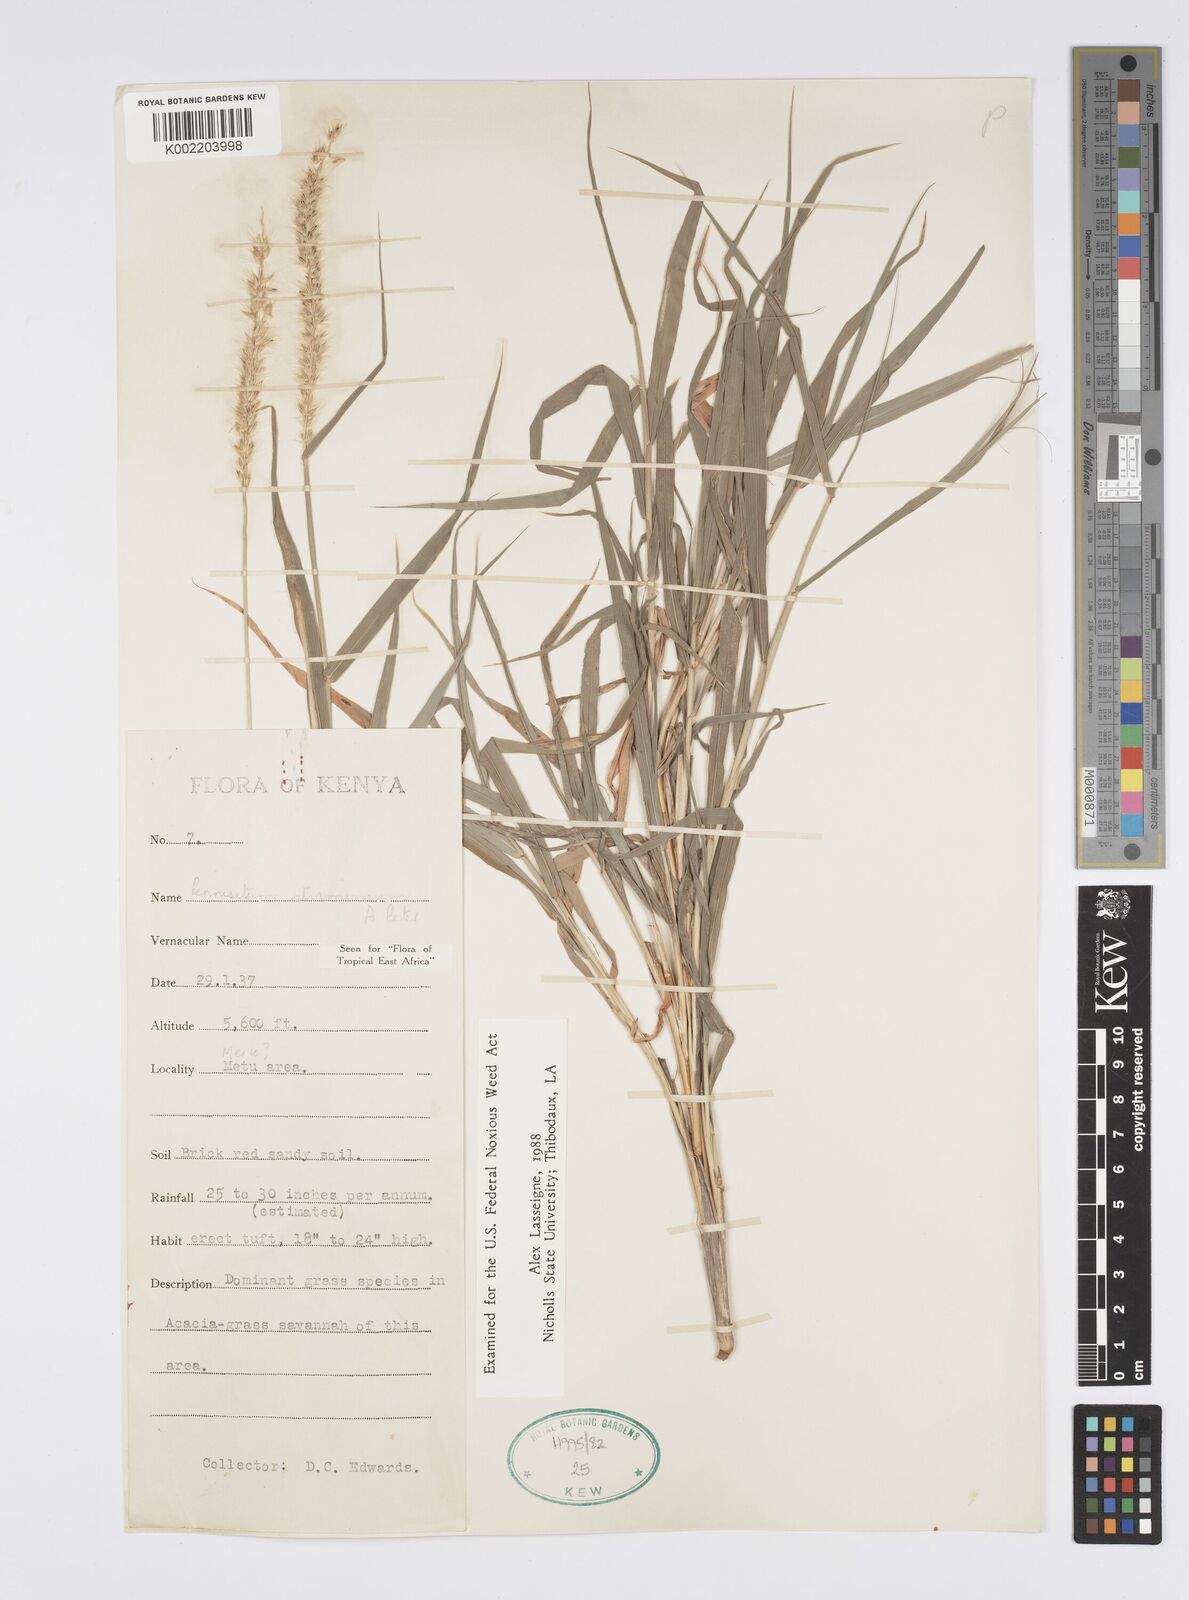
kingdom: Plantae
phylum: Tracheophyta
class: Liliopsida
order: Poales
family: Poaceae
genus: Cenchrus
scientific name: Cenchrus stramineus
